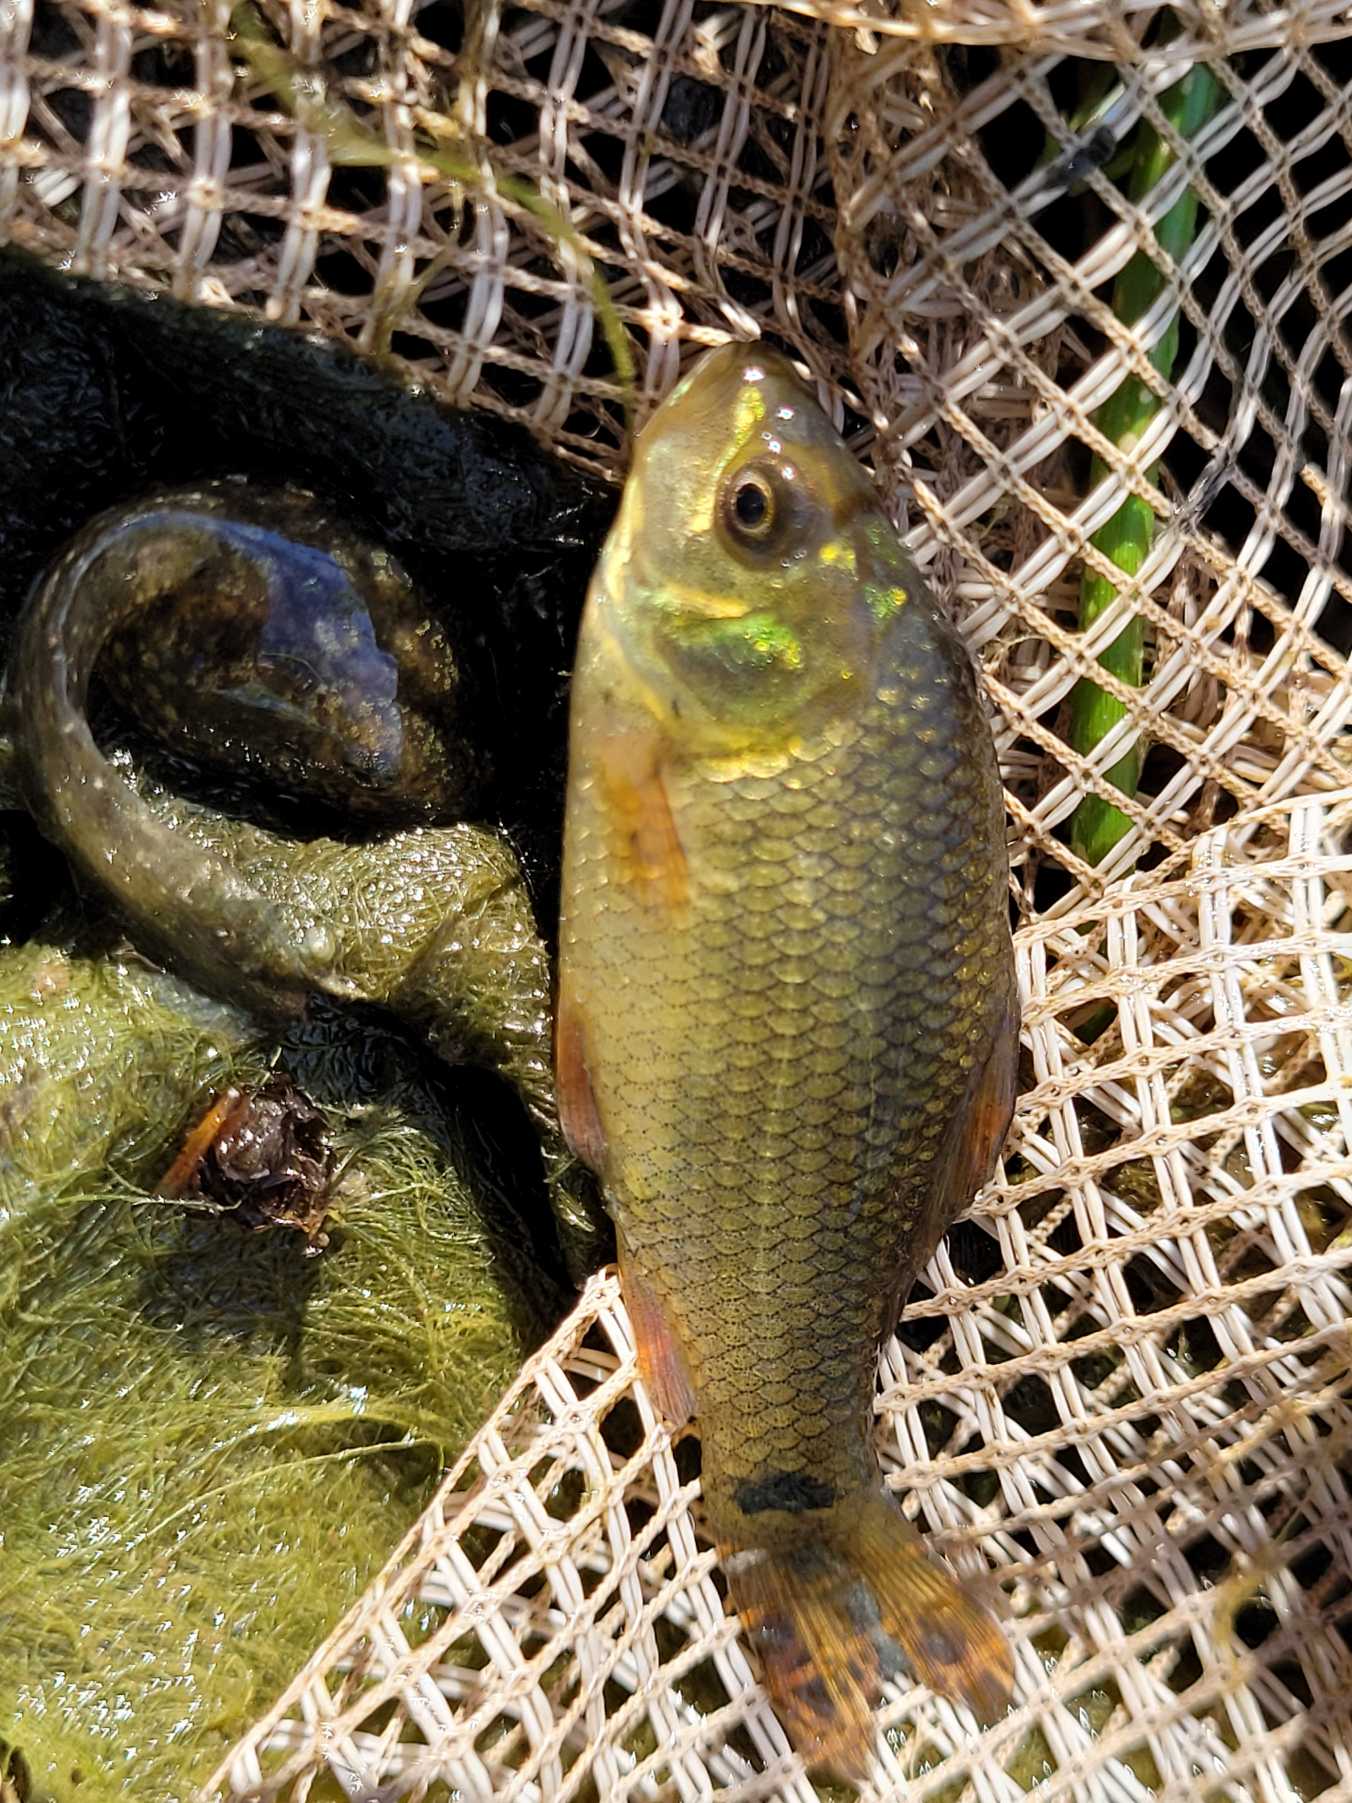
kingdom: Animalia
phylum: Chordata
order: Cypriniformes
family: Cyprinidae
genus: Carassius
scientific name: Carassius carassius
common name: Karusse
